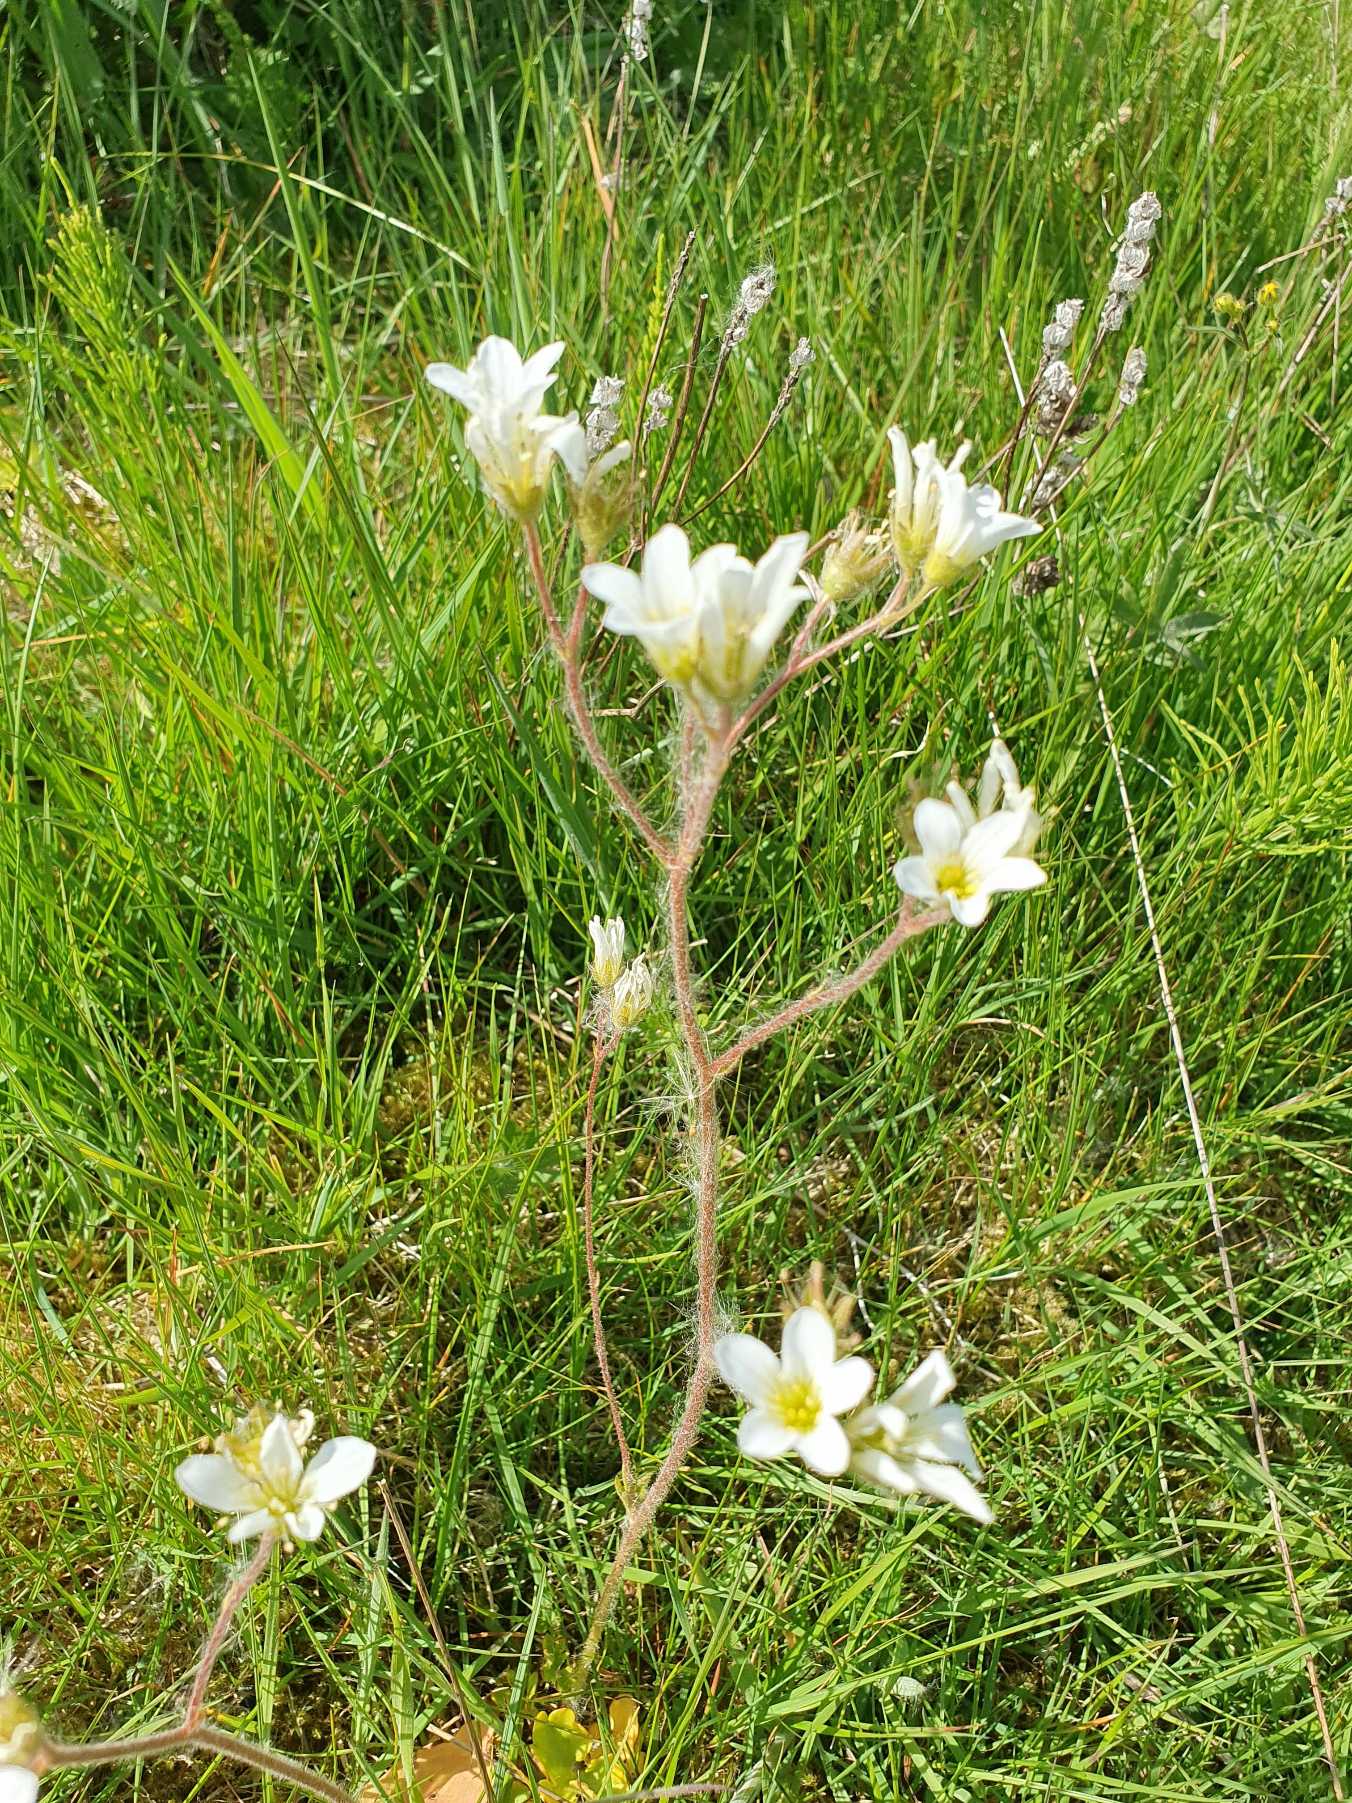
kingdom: Plantae
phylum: Tracheophyta
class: Magnoliopsida
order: Saxifragales
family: Saxifragaceae
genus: Saxifraga
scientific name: Saxifraga granulata
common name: Kornet stenbræk
